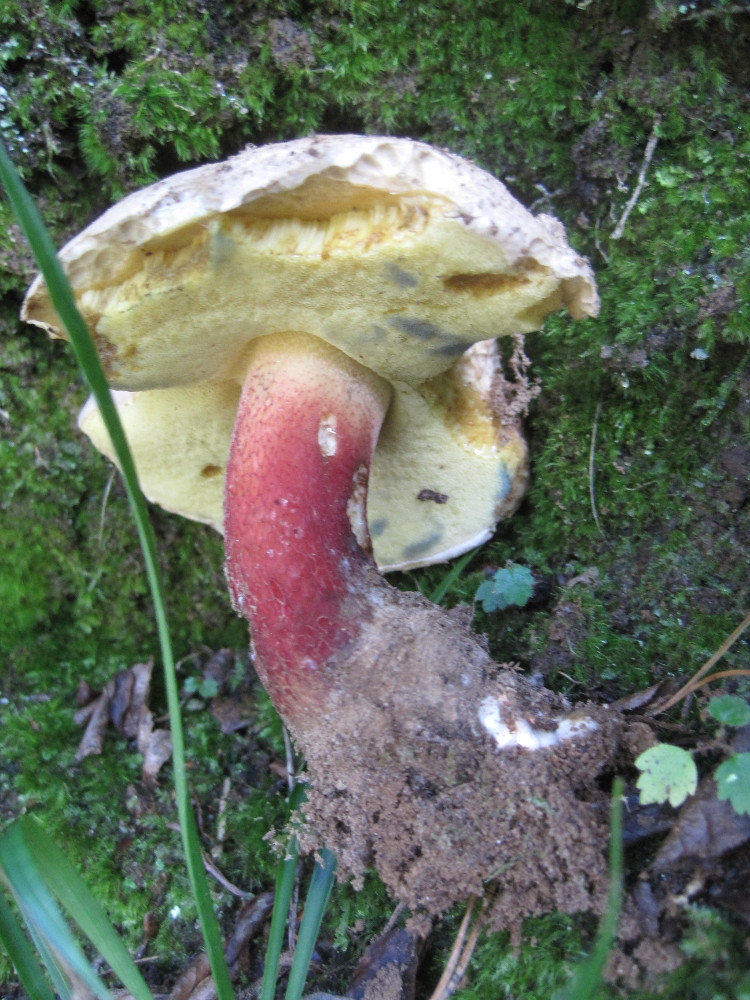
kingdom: Fungi
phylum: Basidiomycota
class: Agaricomycetes
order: Boletales
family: Boletaceae
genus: Caloboletus
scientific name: Caloboletus calopus
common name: skønfodet rørhat
